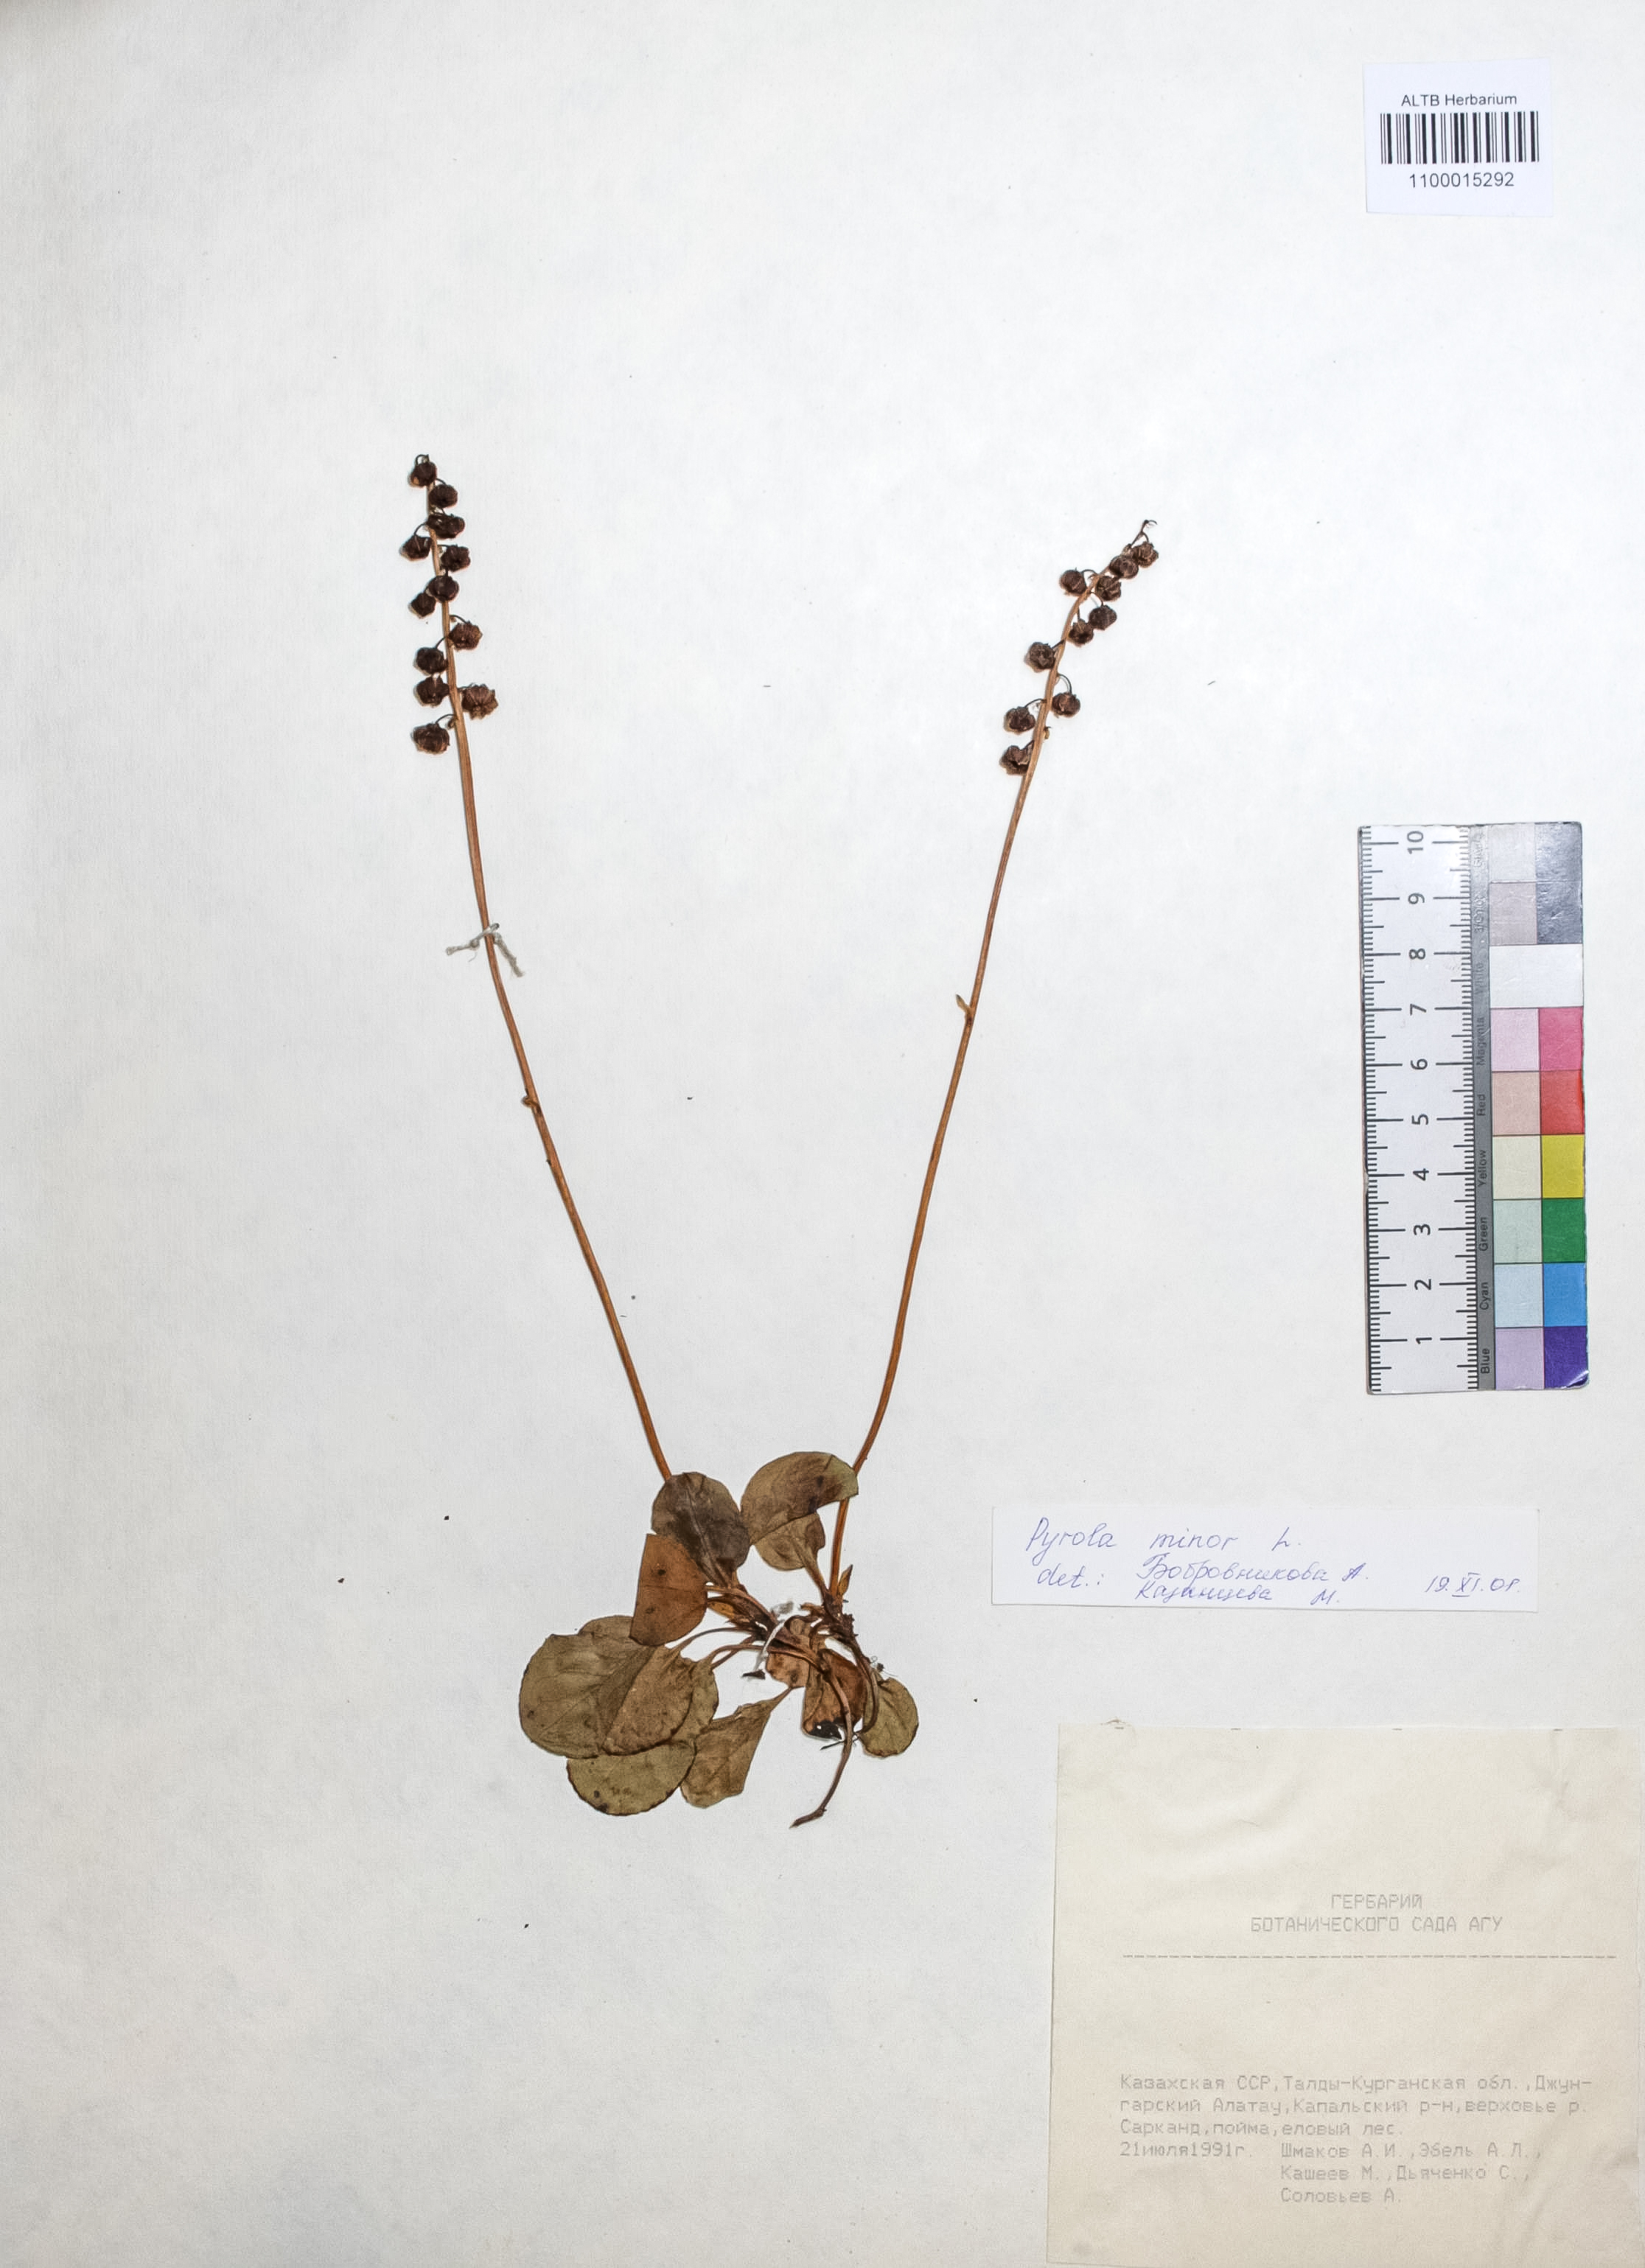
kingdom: Plantae
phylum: Tracheophyta
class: Magnoliopsida
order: Ericales
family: Ericaceae
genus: Pyrola
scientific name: Pyrola minor
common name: Common wintergreen
